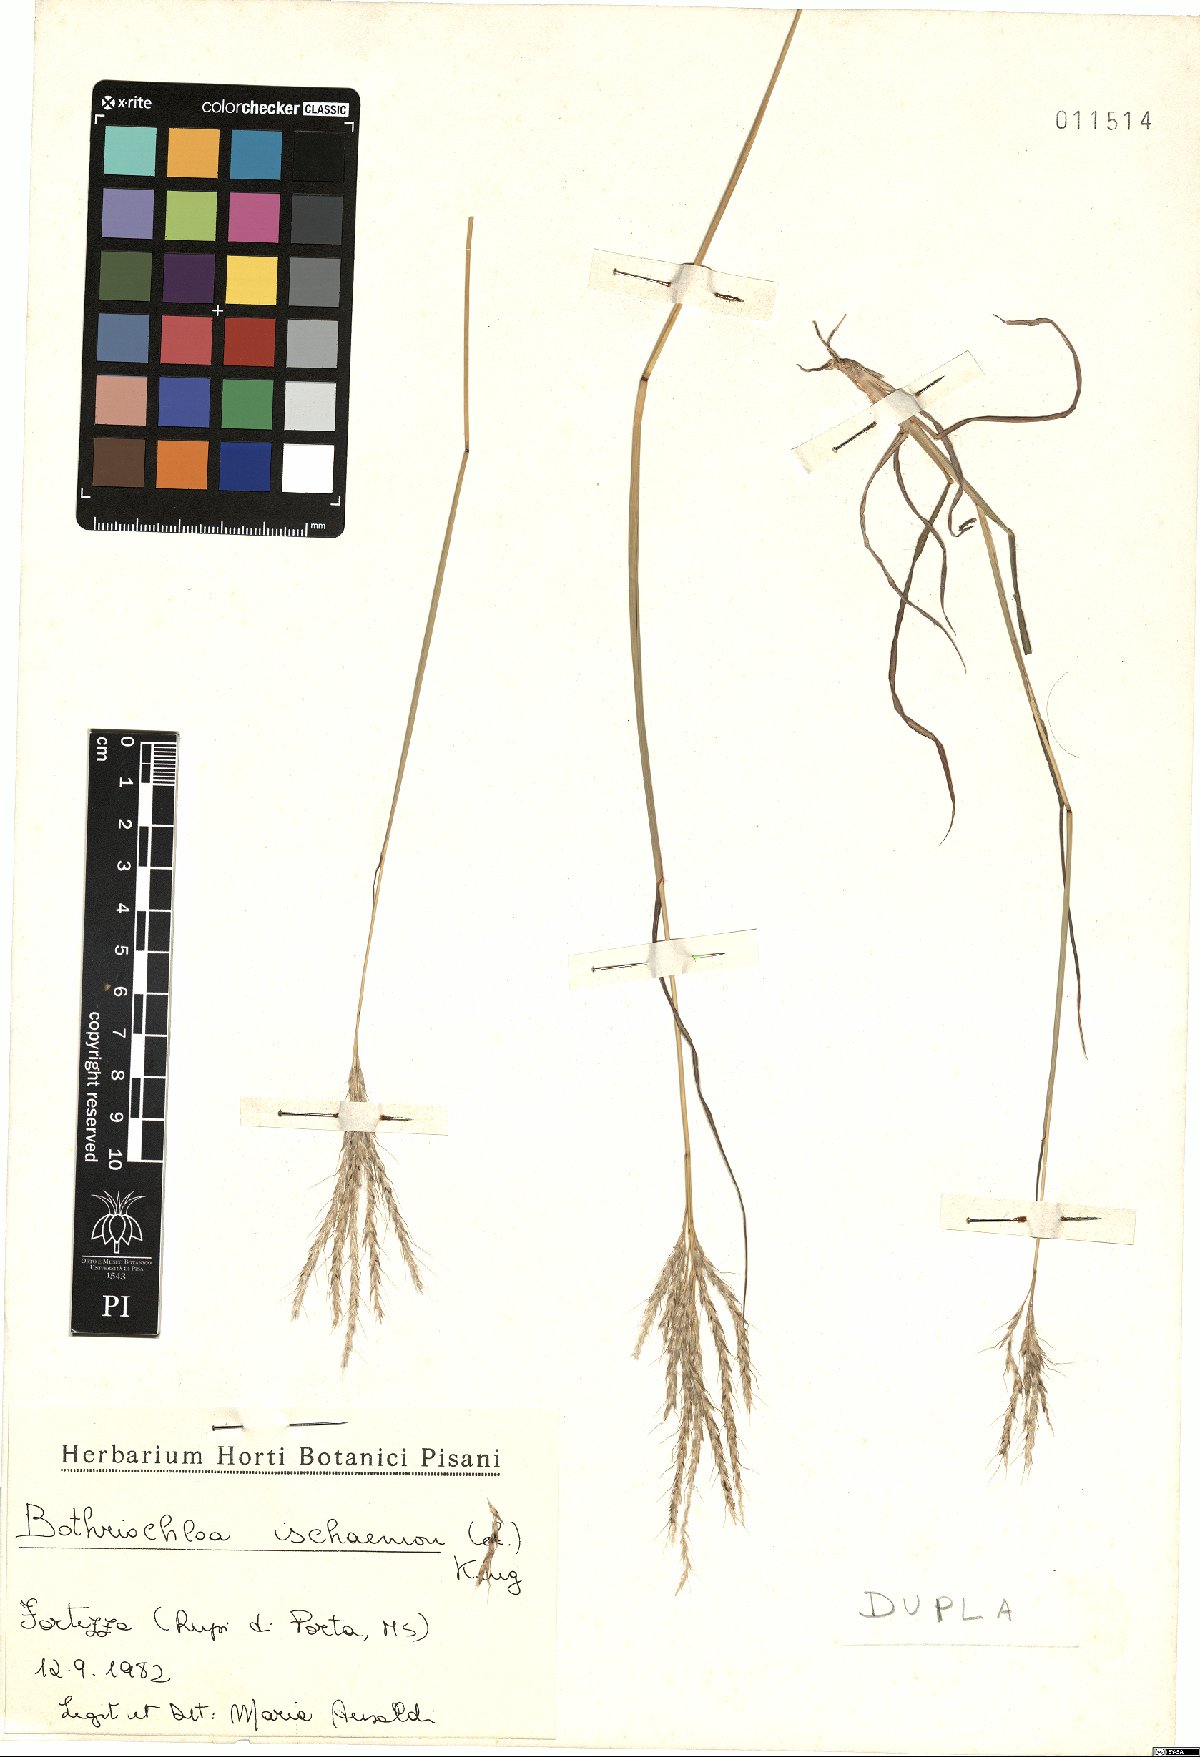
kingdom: Plantae
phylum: Tracheophyta
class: Liliopsida
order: Poales
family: Poaceae
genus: Bothriochloa
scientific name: Bothriochloa ischaemum
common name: Yellow bluestem
